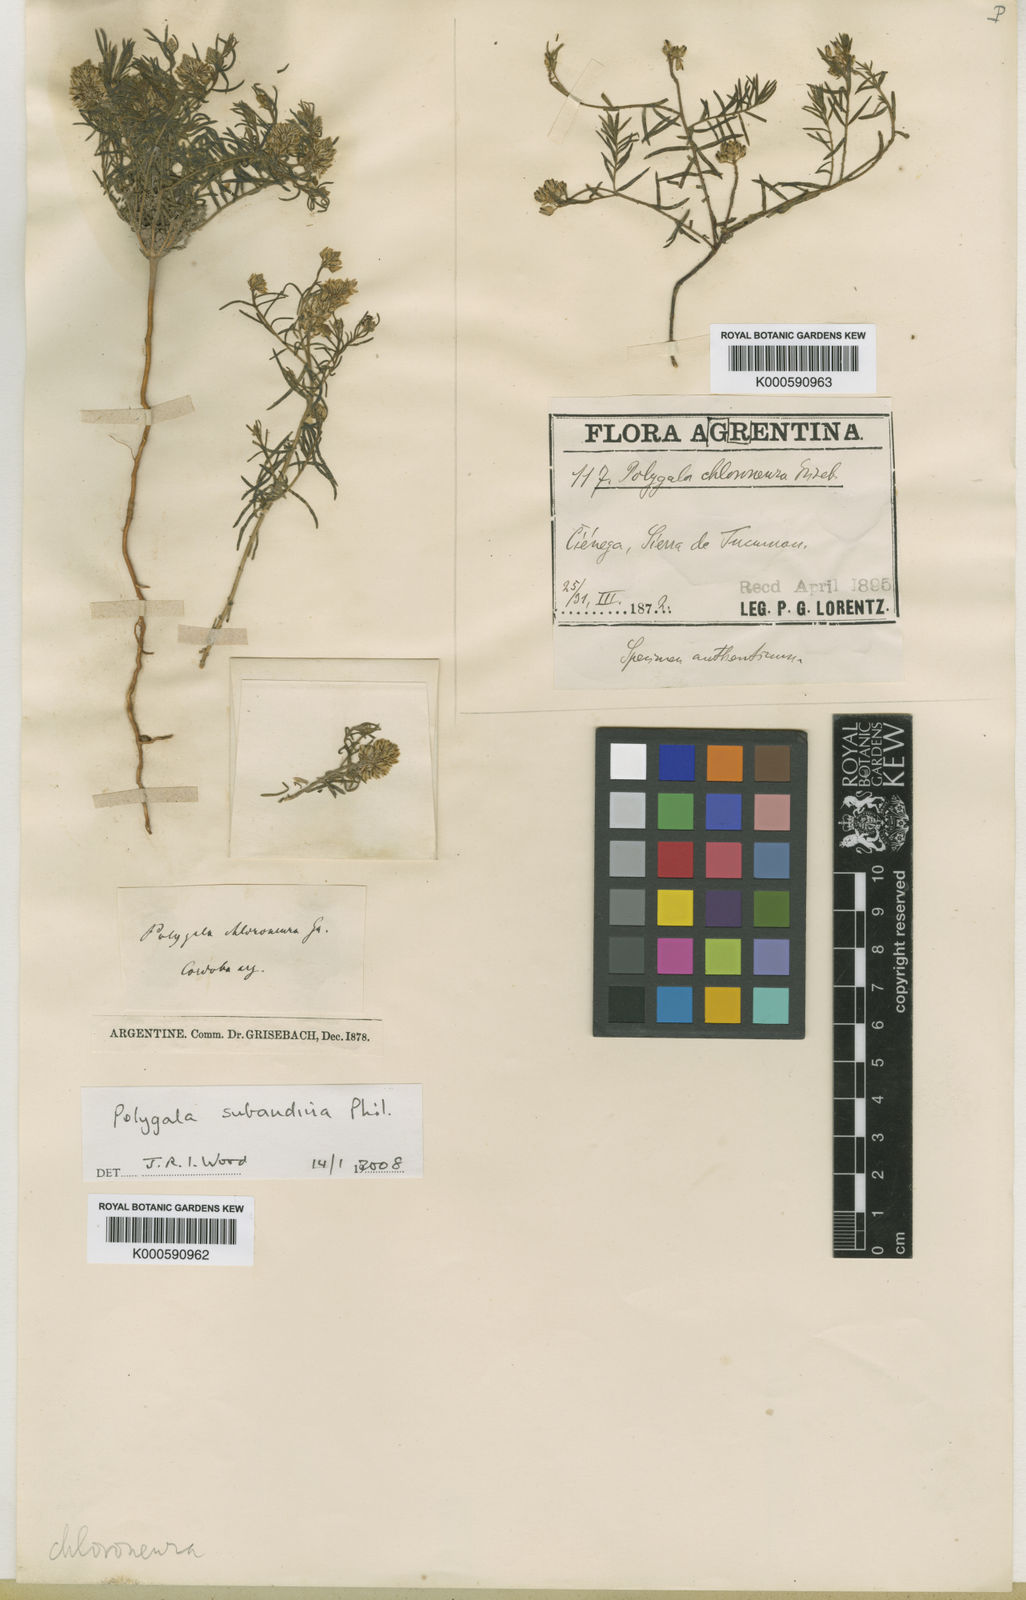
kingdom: Plantae
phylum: Tracheophyta
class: Magnoliopsida
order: Fabales
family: Polygalaceae
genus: Polygala
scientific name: Polygala subandina
